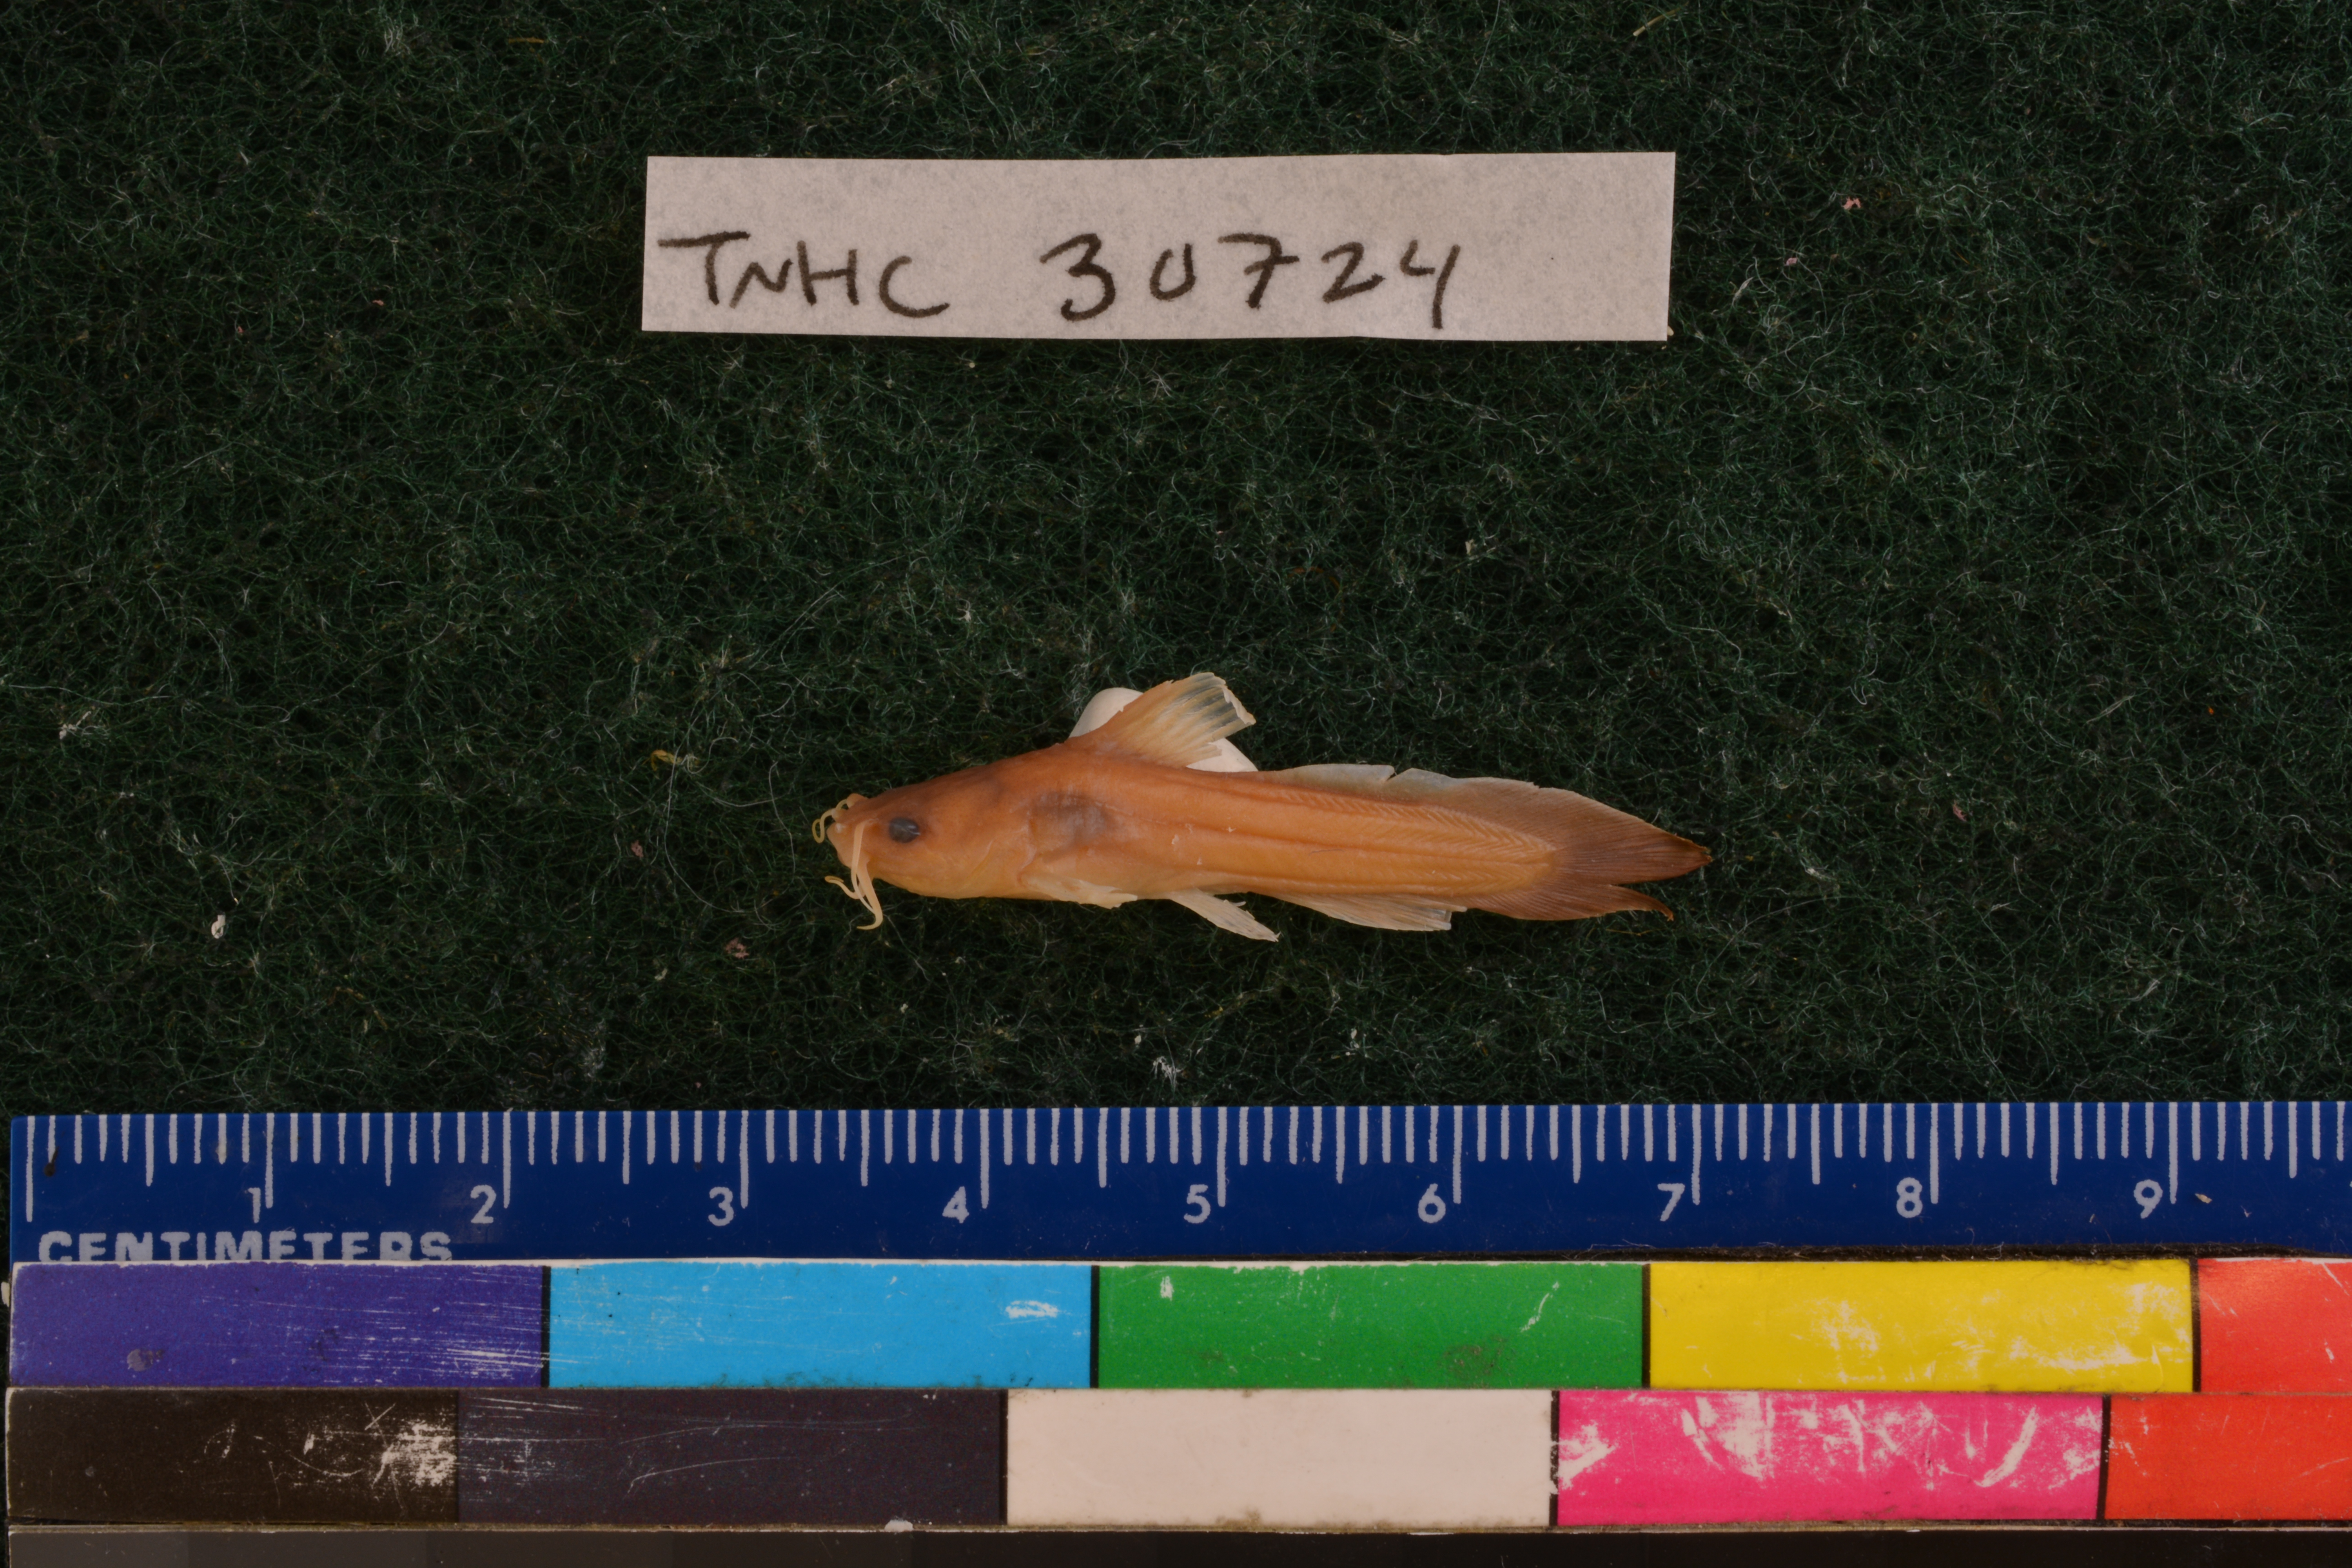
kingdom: Animalia
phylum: Chordata
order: Siluriformes
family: Ictaluridae
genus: Noturus
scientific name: Noturus gyrinus
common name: Tadpole madtom
